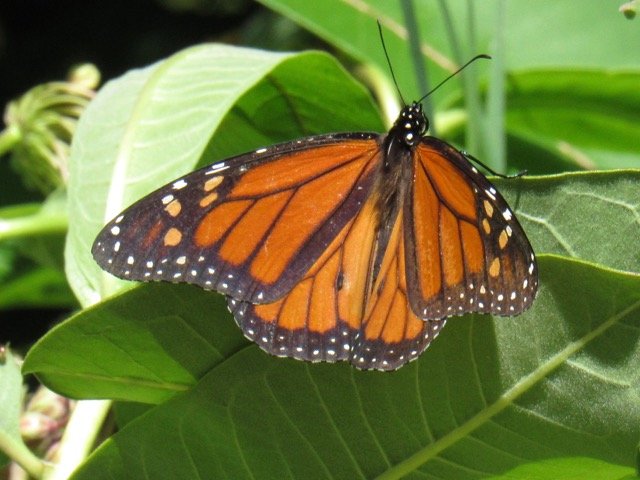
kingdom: Animalia
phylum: Arthropoda
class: Insecta
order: Lepidoptera
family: Nymphalidae
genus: Danaus
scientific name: Danaus plexippus
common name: Monarch
